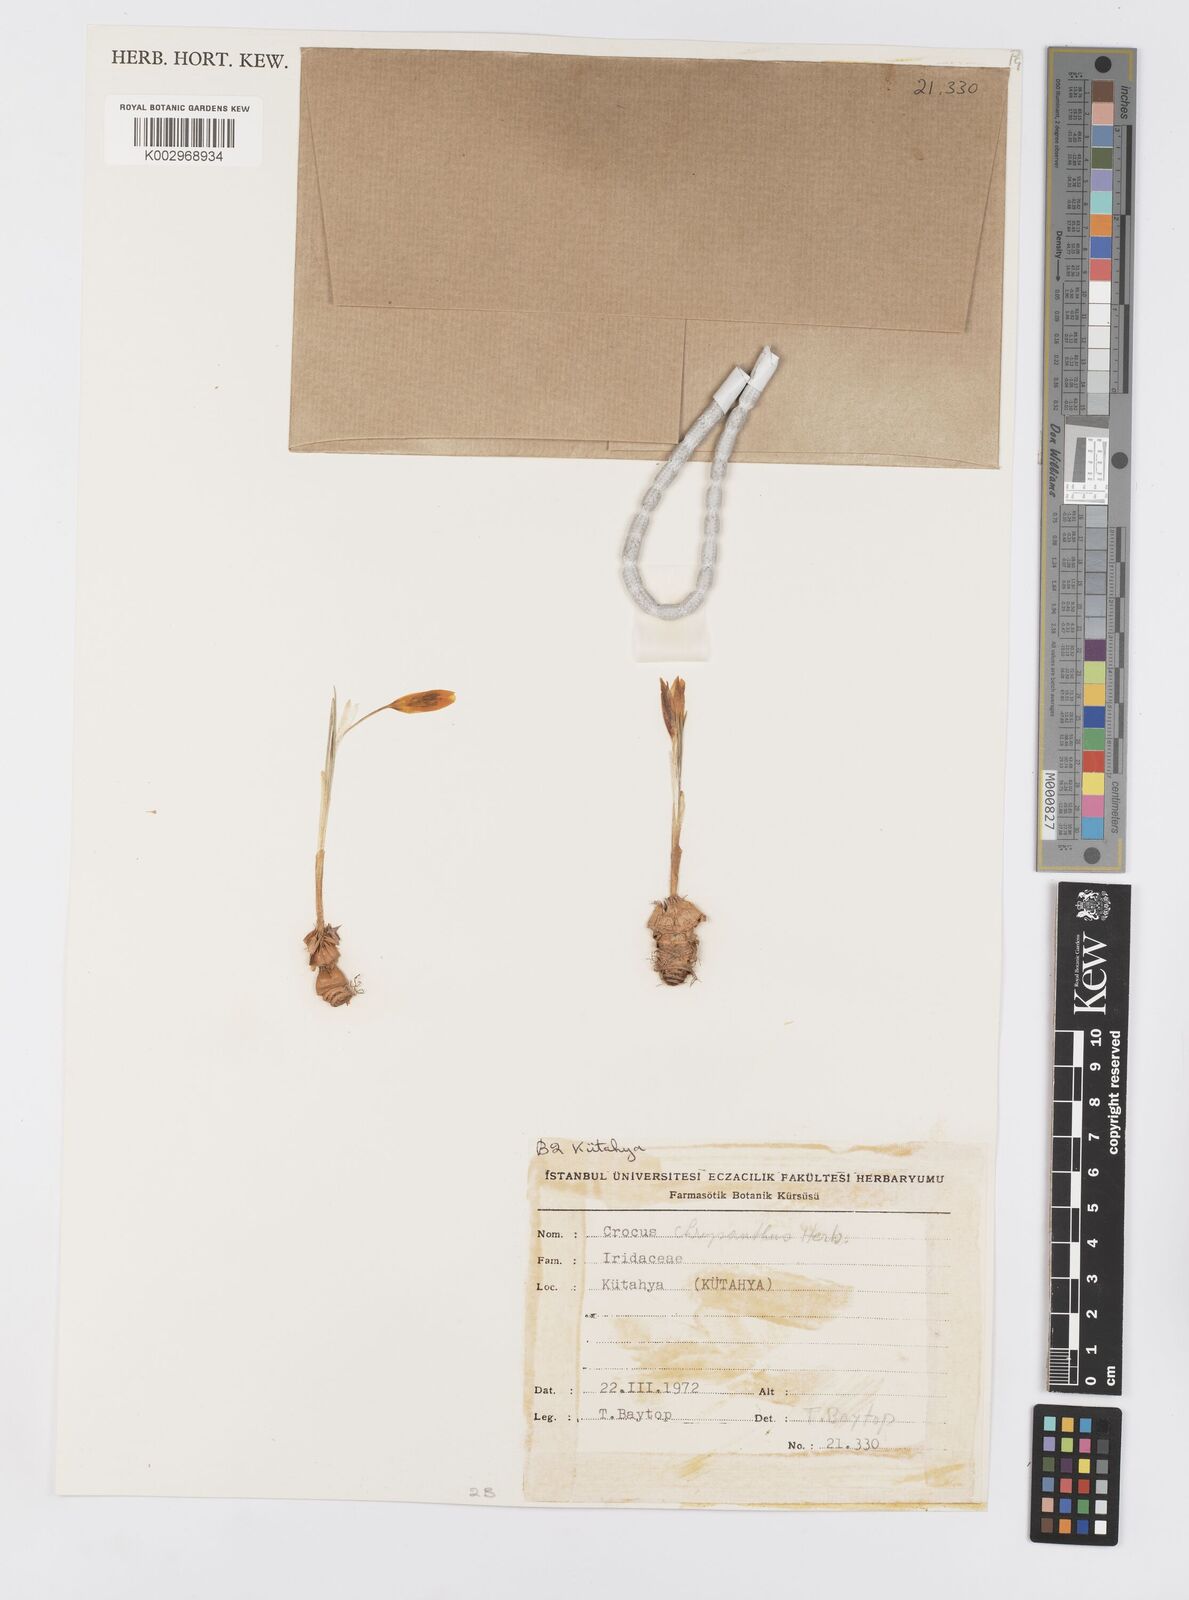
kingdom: Plantae
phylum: Tracheophyta
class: Liliopsida
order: Asparagales
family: Iridaceae
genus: Crocus
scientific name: Crocus chrysanthus
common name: Golden crocus
